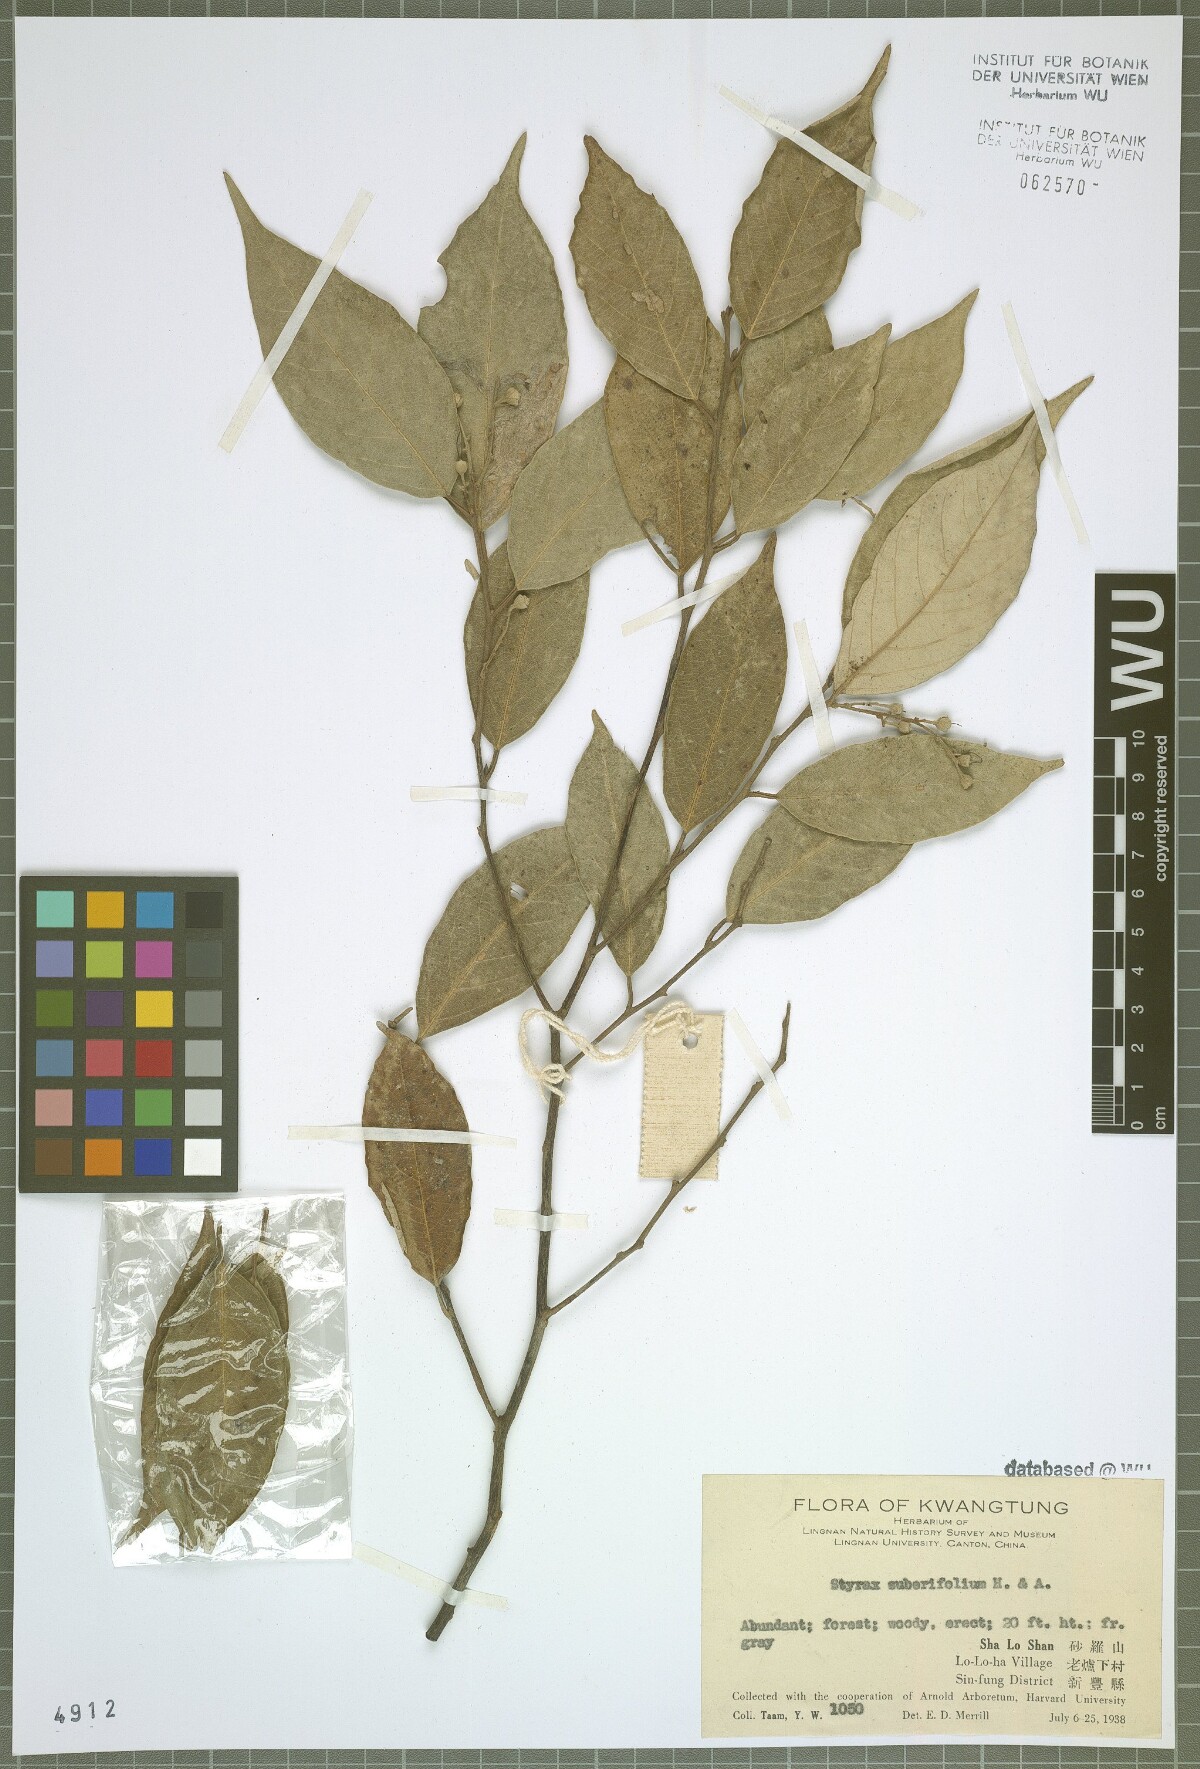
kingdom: Plantae
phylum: Tracheophyta
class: Magnoliopsida
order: Ericales
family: Styracaceae
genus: Styrax
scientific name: Styrax suberifolius
